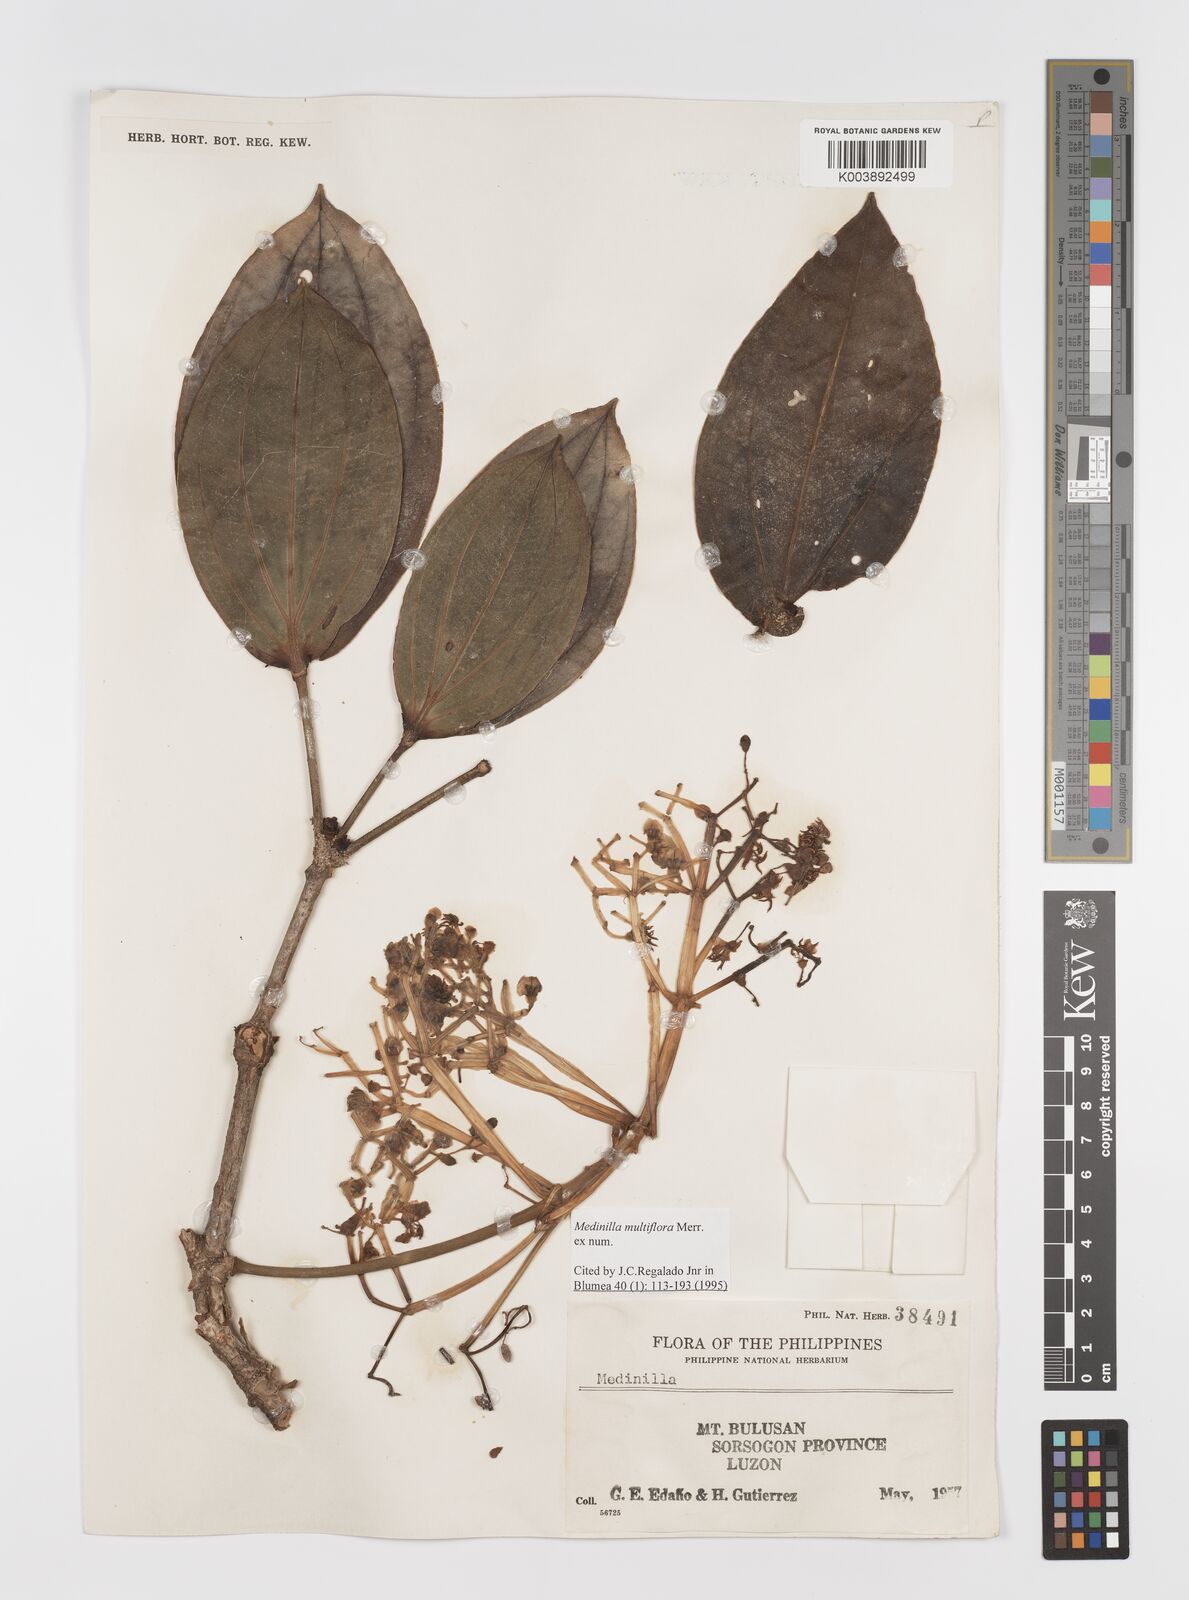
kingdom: Plantae
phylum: Tracheophyta
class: Magnoliopsida
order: Myrtales
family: Melastomataceae
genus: Medinilla
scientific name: Medinilla multiflora
